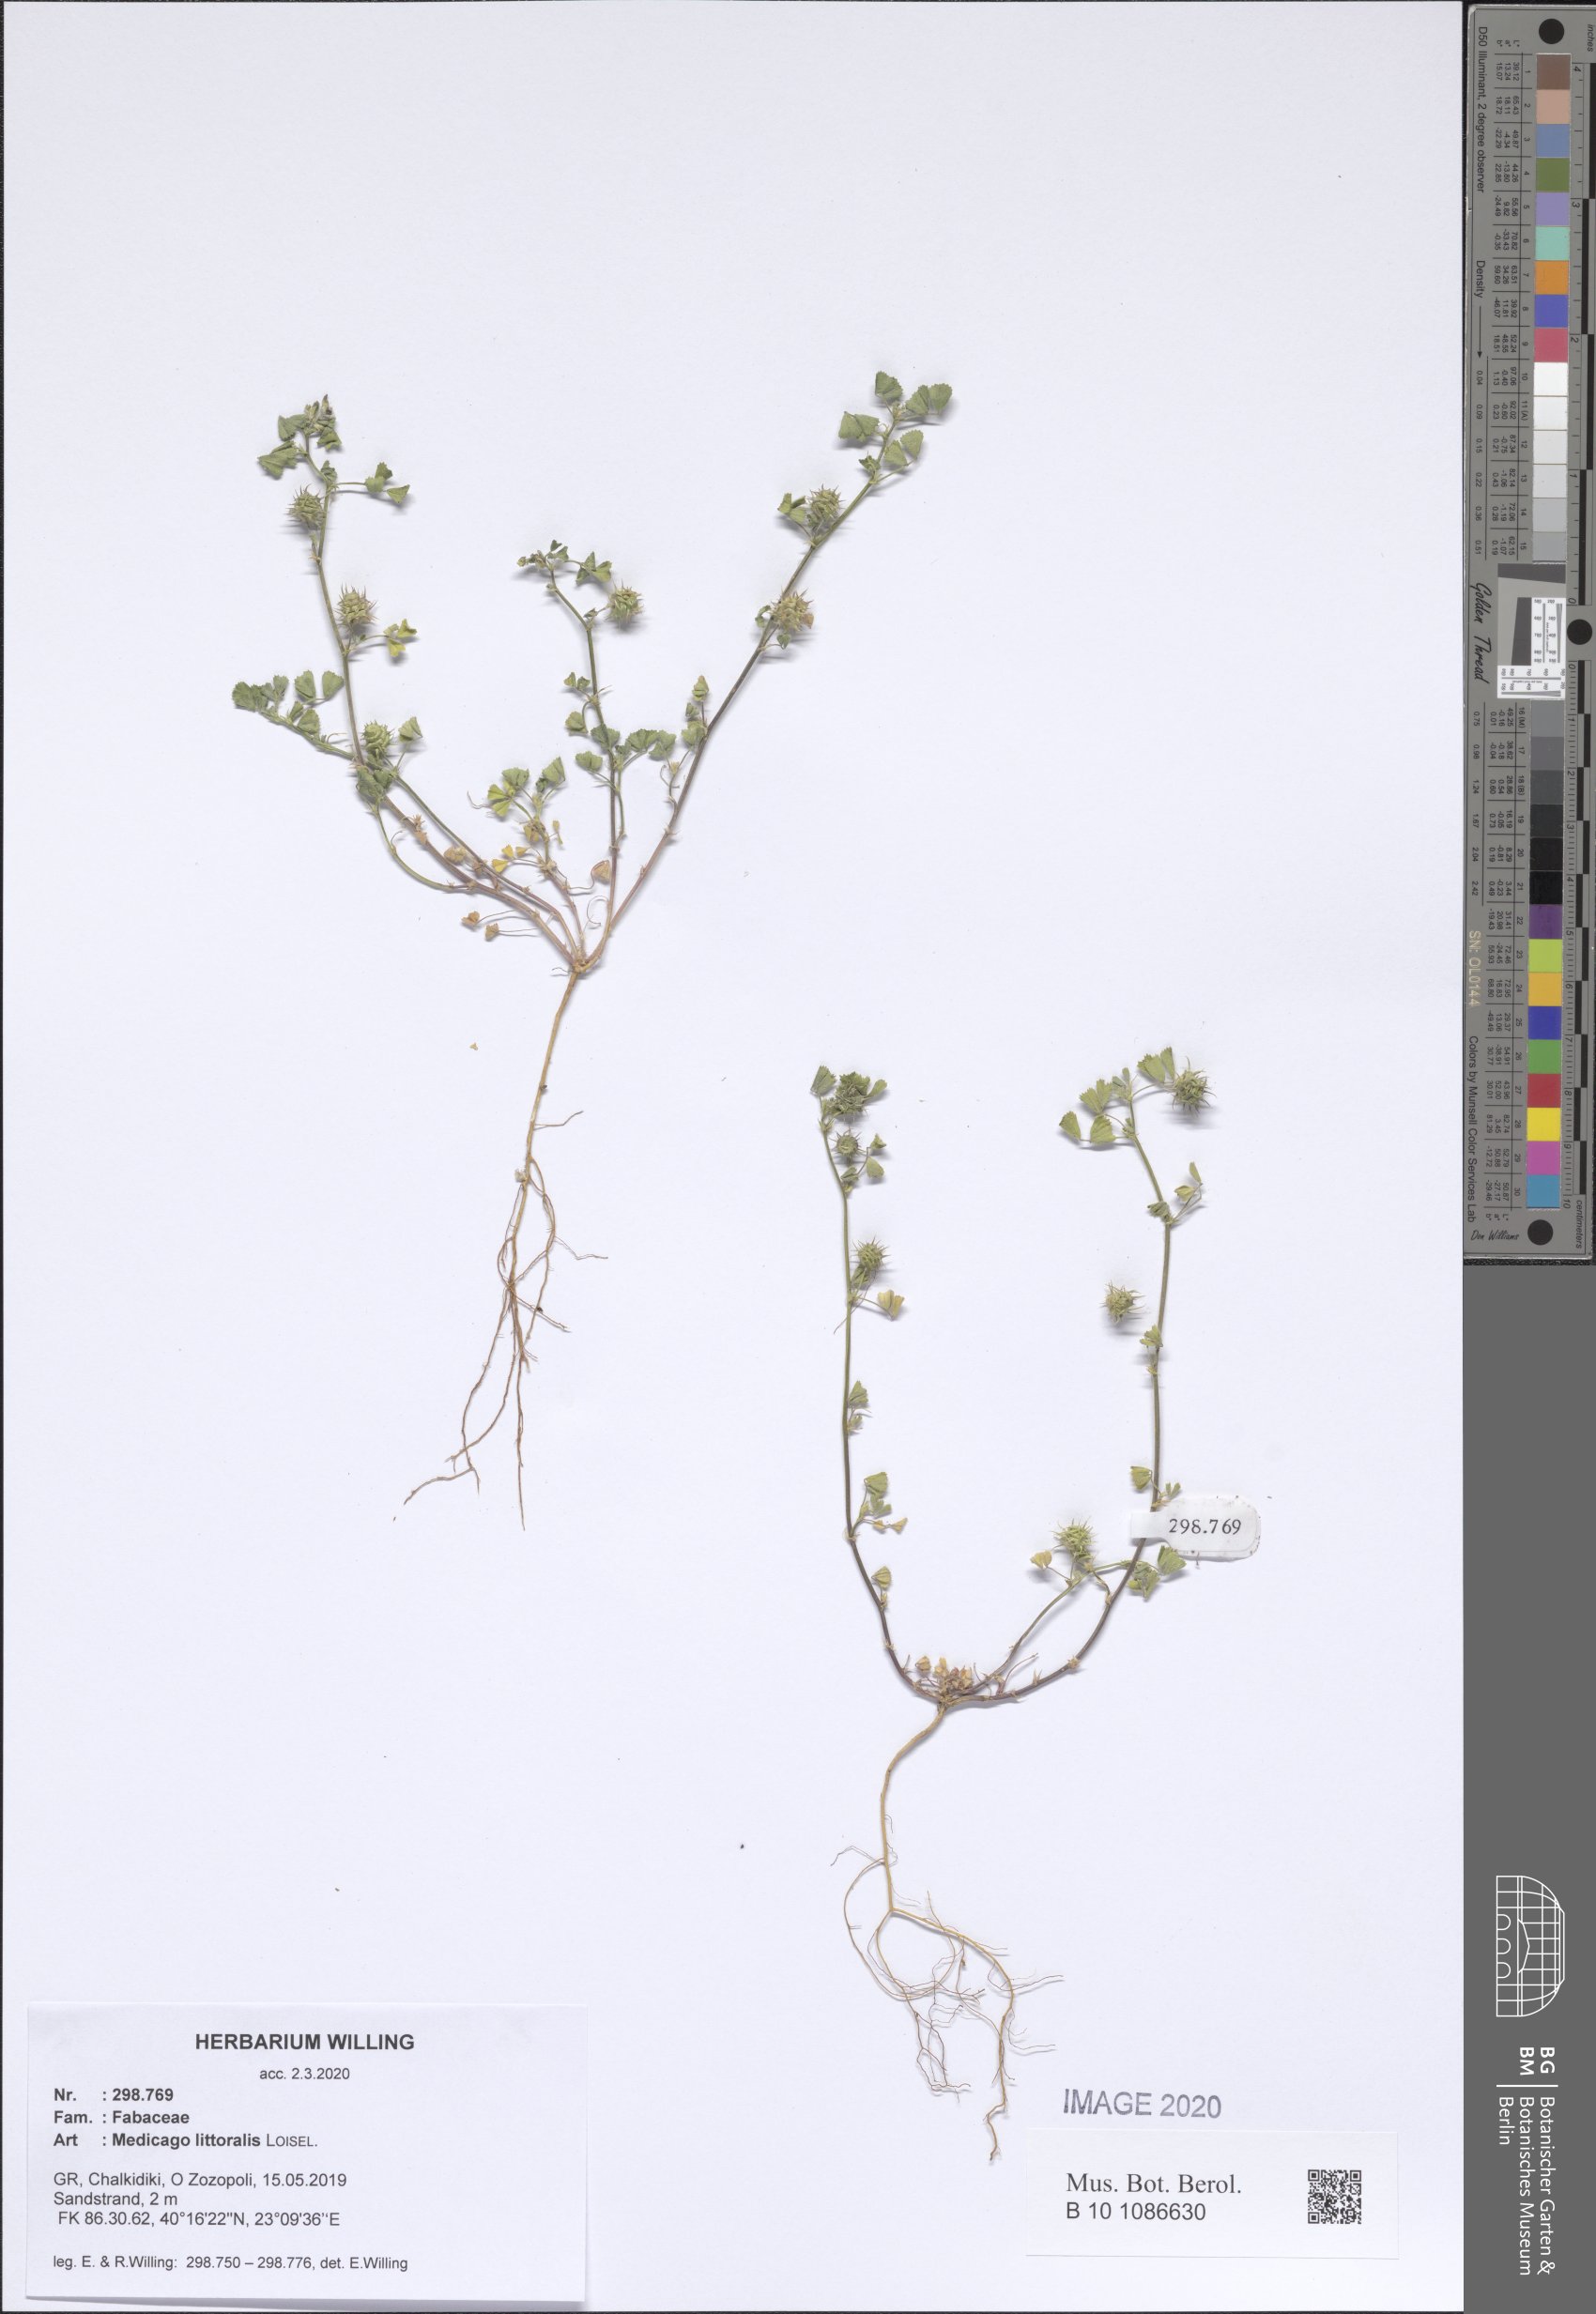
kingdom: Plantae
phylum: Tracheophyta
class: Magnoliopsida
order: Fabales
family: Fabaceae
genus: Medicago
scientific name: Medicago littoralis
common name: Shore medick
